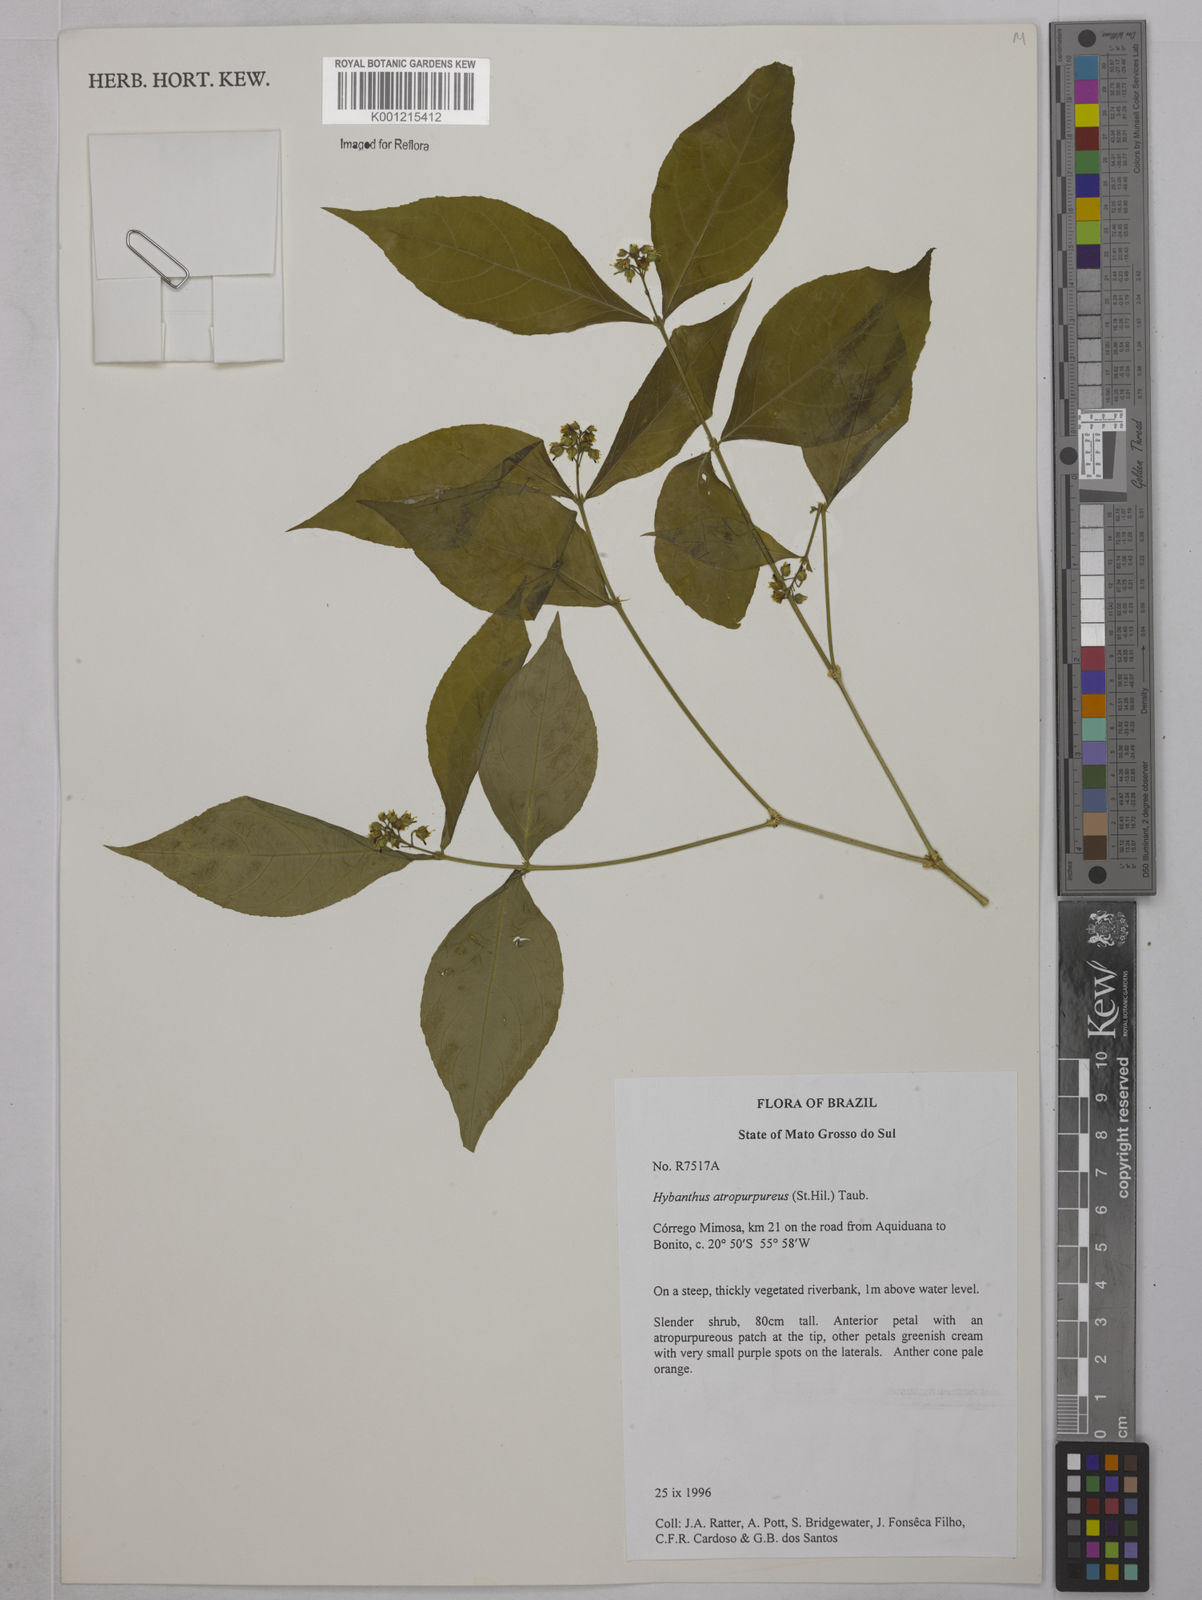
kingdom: Plantae
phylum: Tracheophyta
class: Magnoliopsida
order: Malpighiales
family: Violaceae
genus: Pombalia
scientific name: Pombalia atropurpurea
